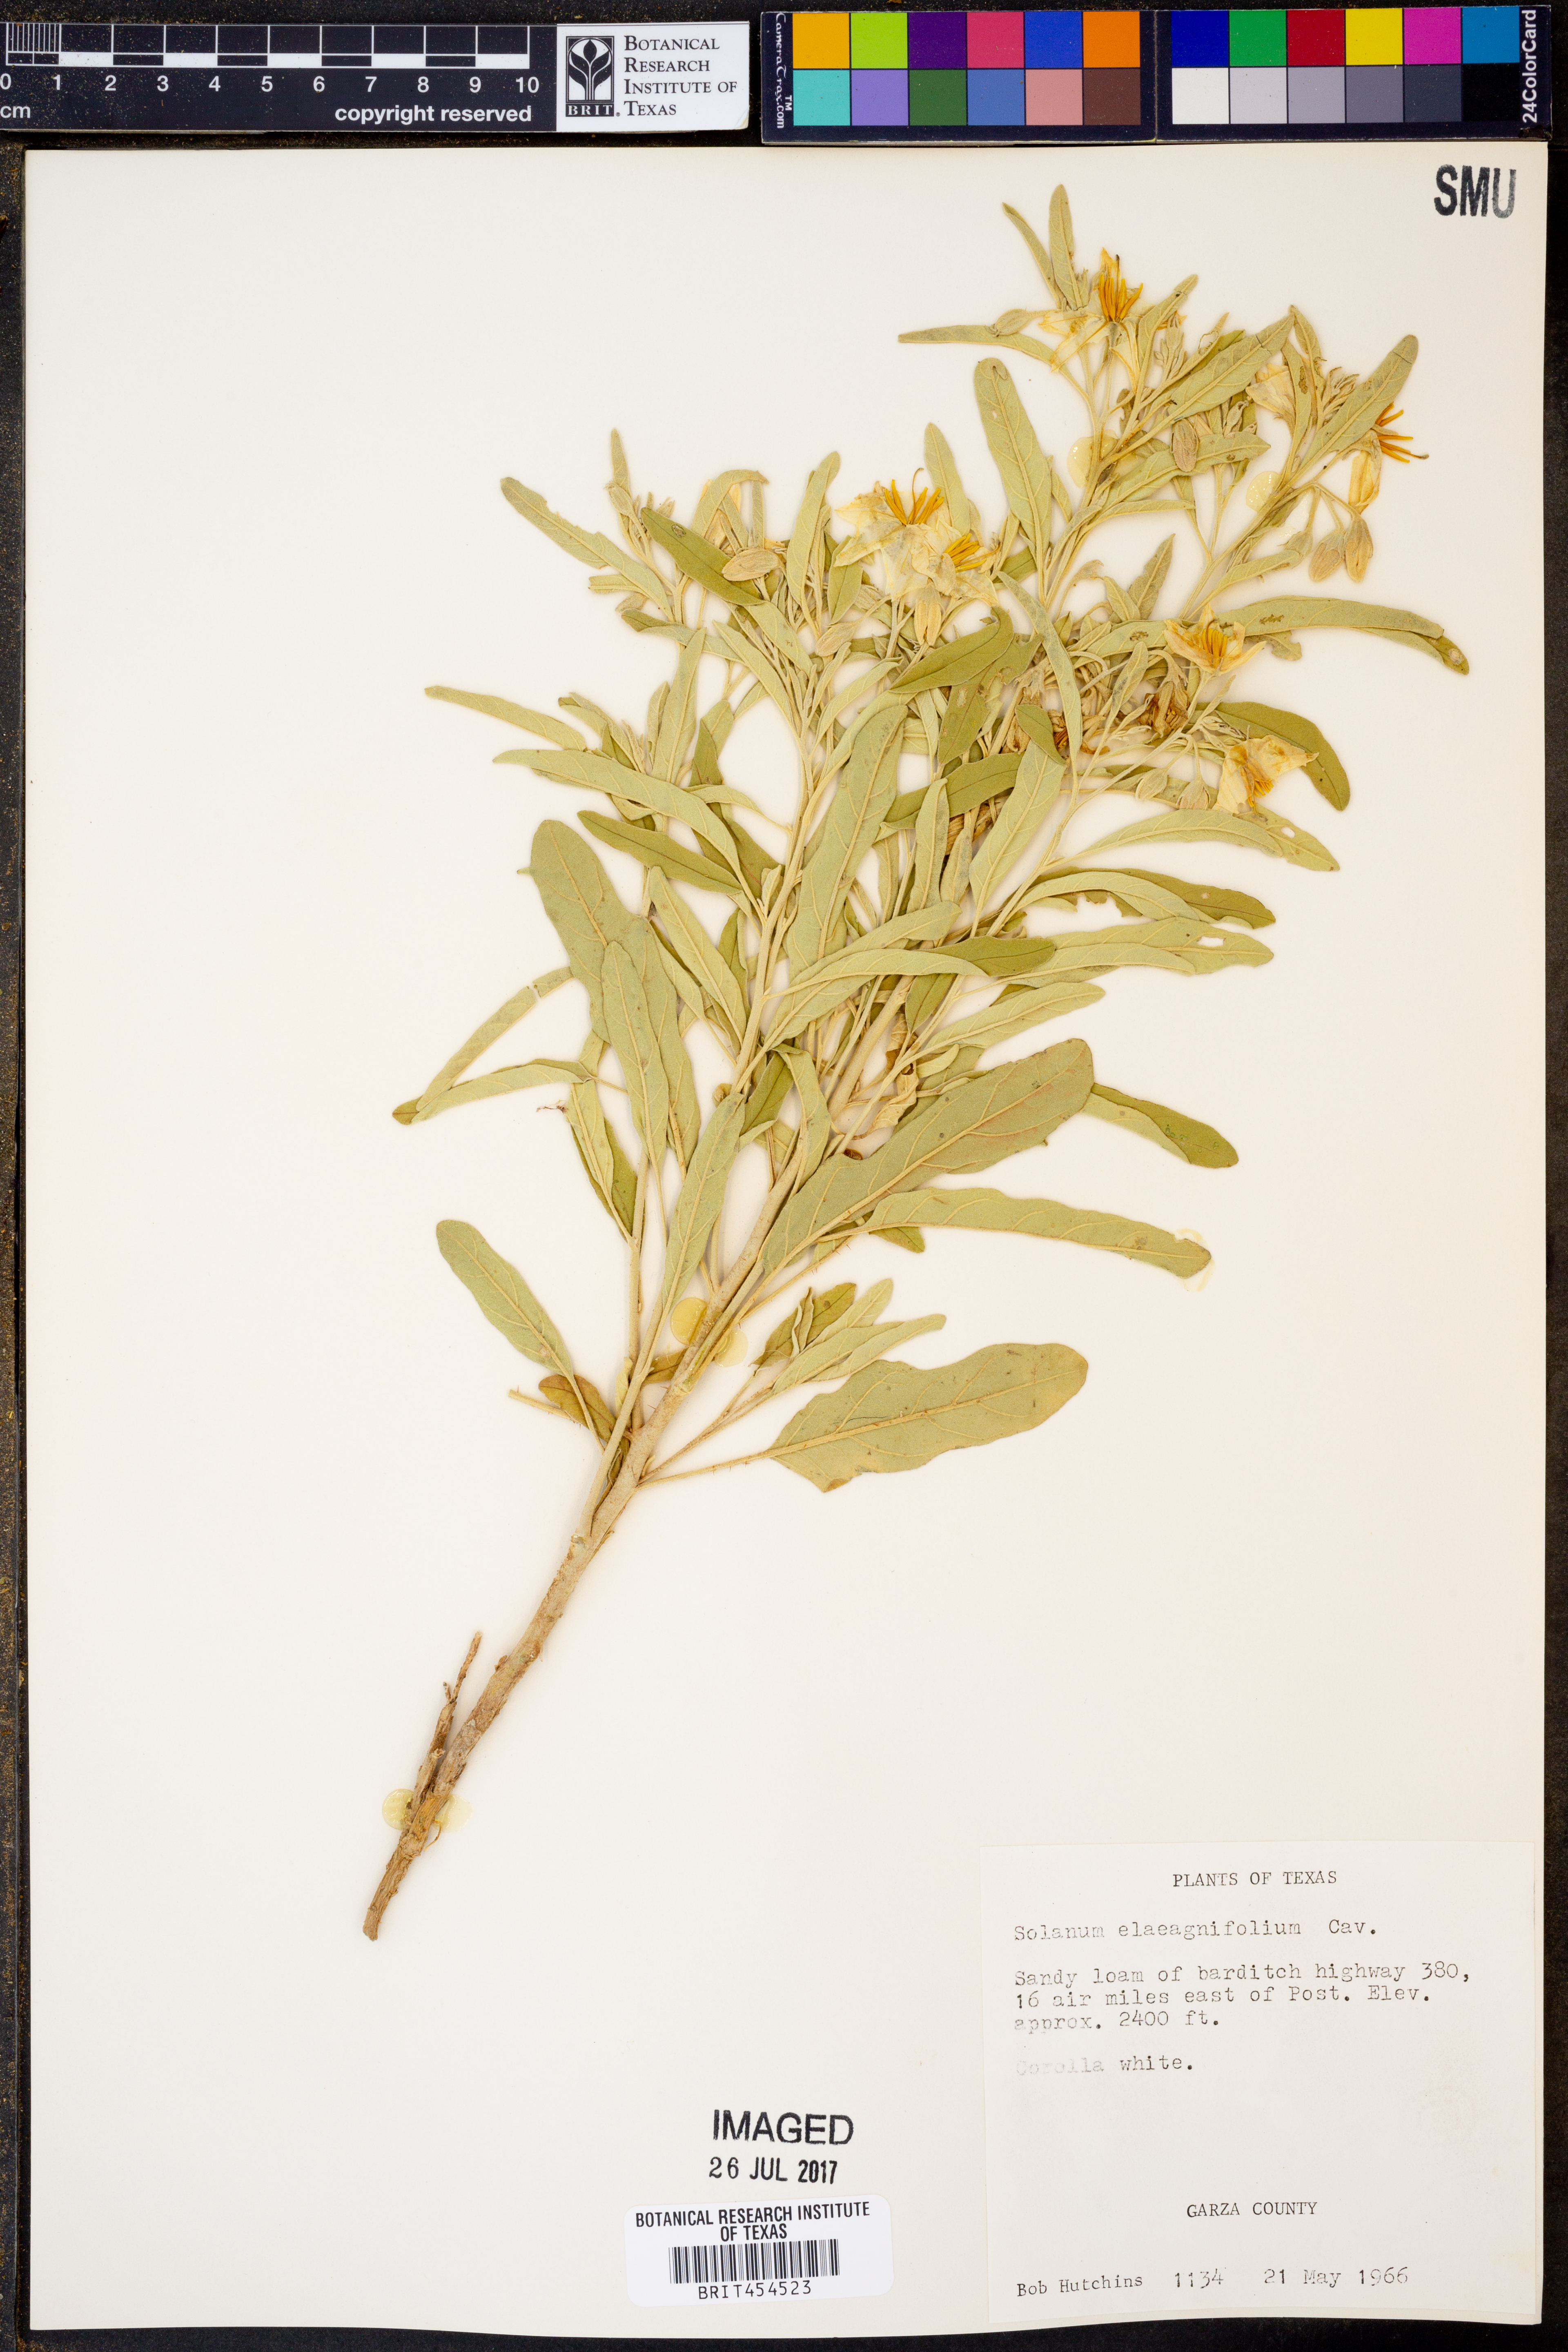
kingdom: Plantae
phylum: Tracheophyta
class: Magnoliopsida
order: Solanales
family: Solanaceae
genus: Solanum
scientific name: Solanum elaeagnifolium
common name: Silverleaf nightshade
